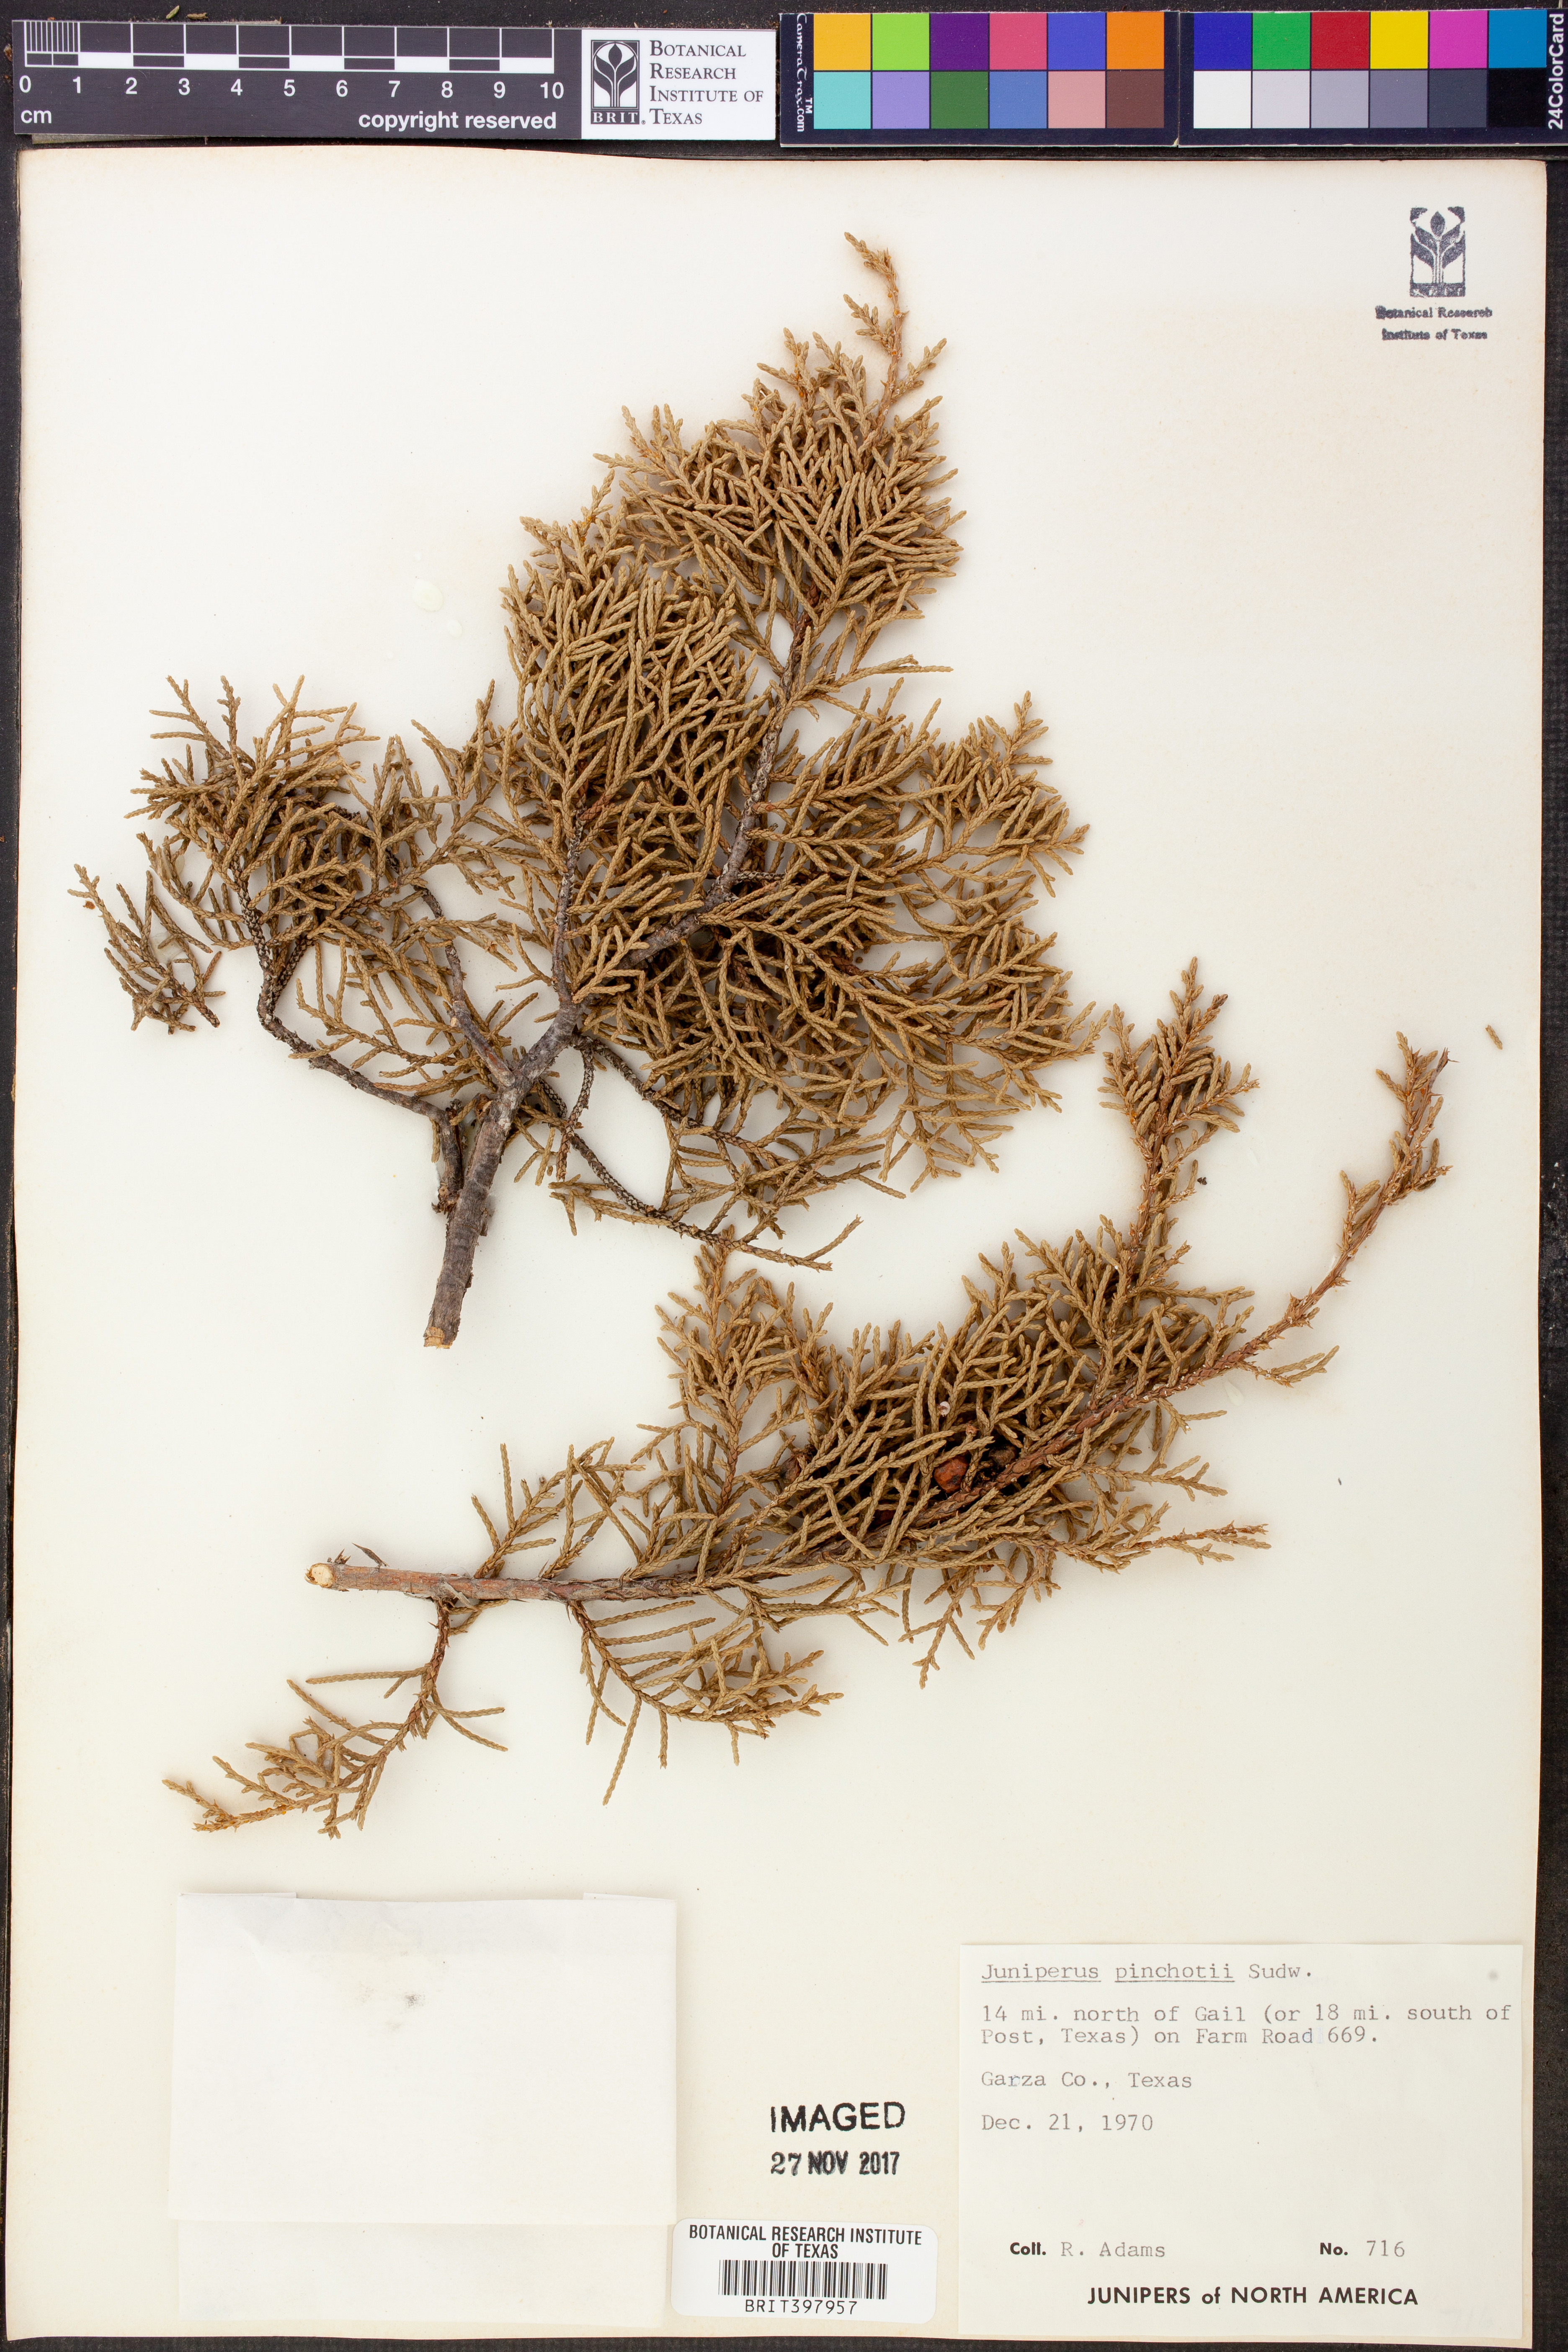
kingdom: Plantae
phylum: Tracheophyta
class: Pinopsida
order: Pinales
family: Cupressaceae
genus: Juniperus
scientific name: Juniperus pinchotii
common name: Pinchot juniper
